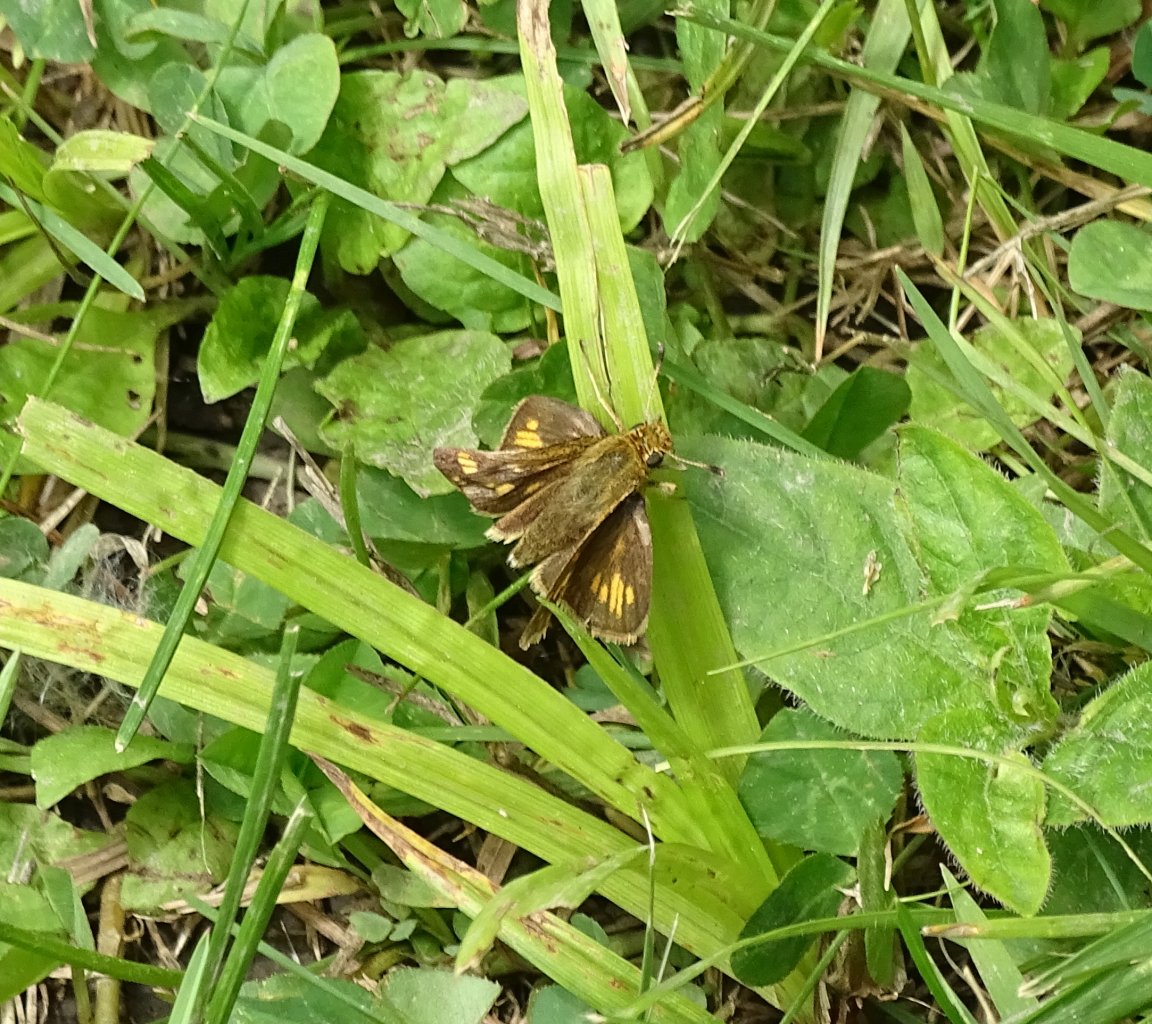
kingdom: Animalia
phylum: Arthropoda
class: Insecta
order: Lepidoptera
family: Hesperiidae
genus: Polites
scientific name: Polites coras
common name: Peck's Skipper
